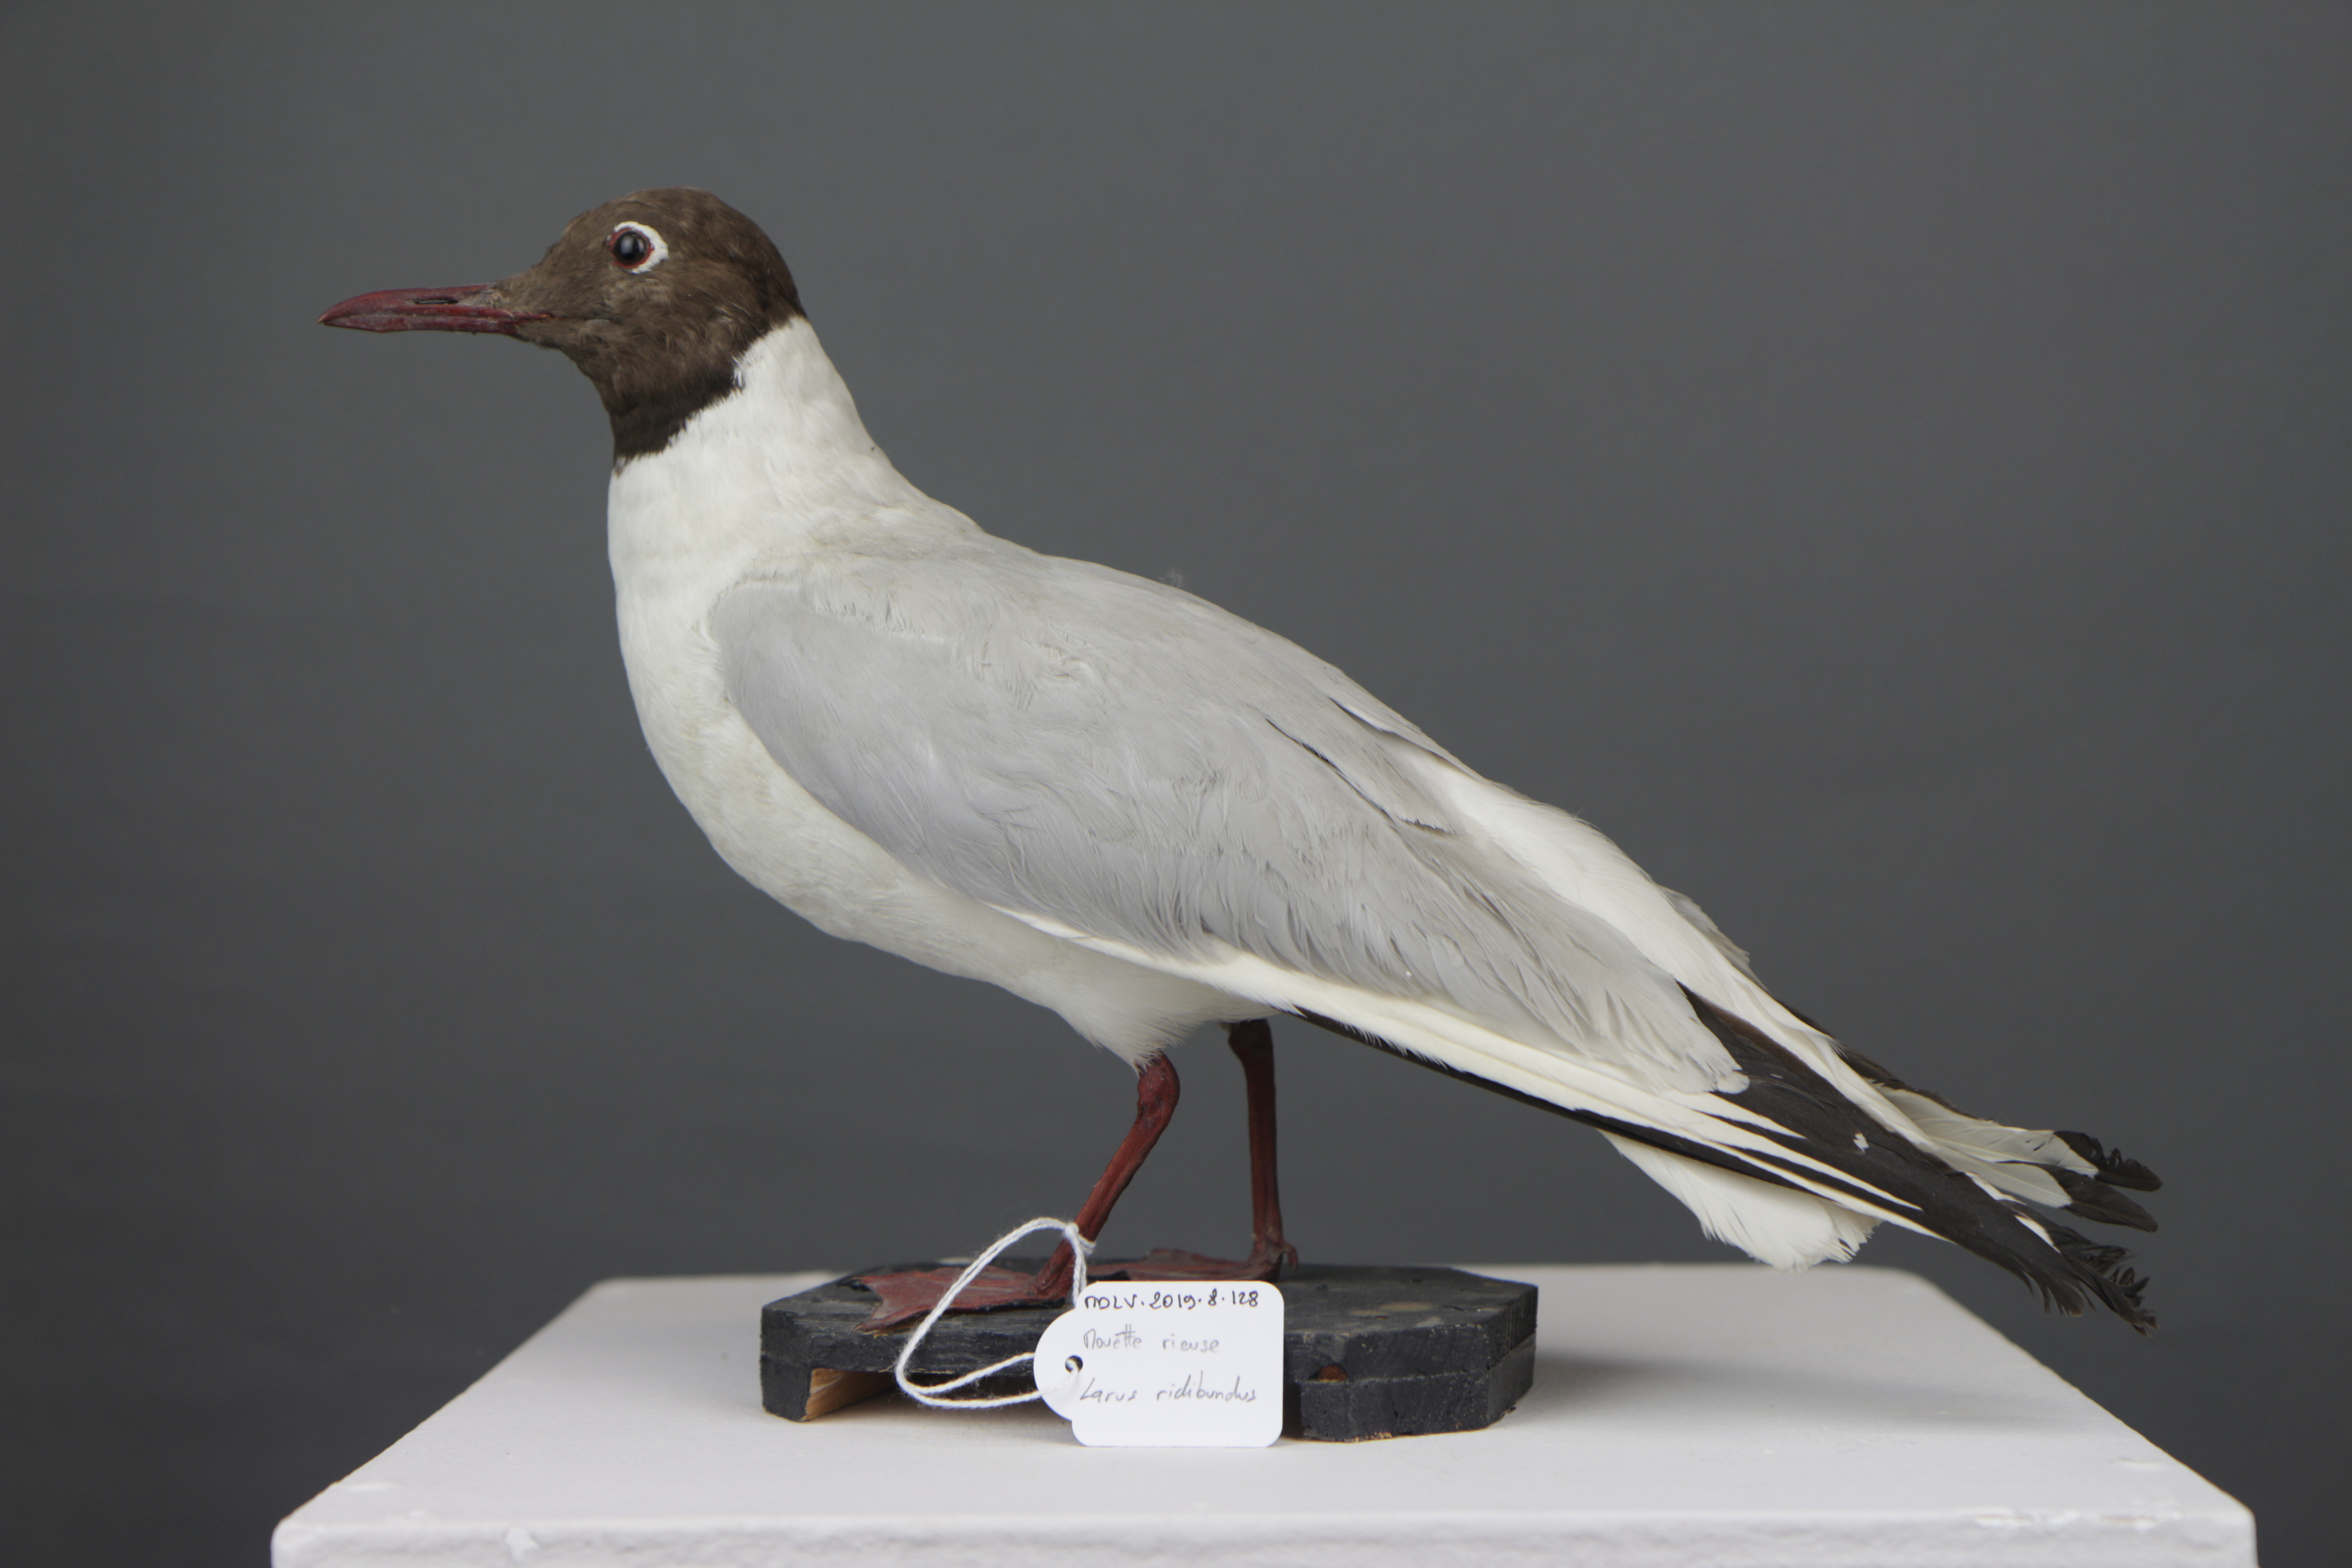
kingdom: Animalia
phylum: Chordata
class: Aves
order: Charadriiformes
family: Laridae
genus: Chroicocephalus
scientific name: Chroicocephalus ridibundus
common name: Black-headed gull
